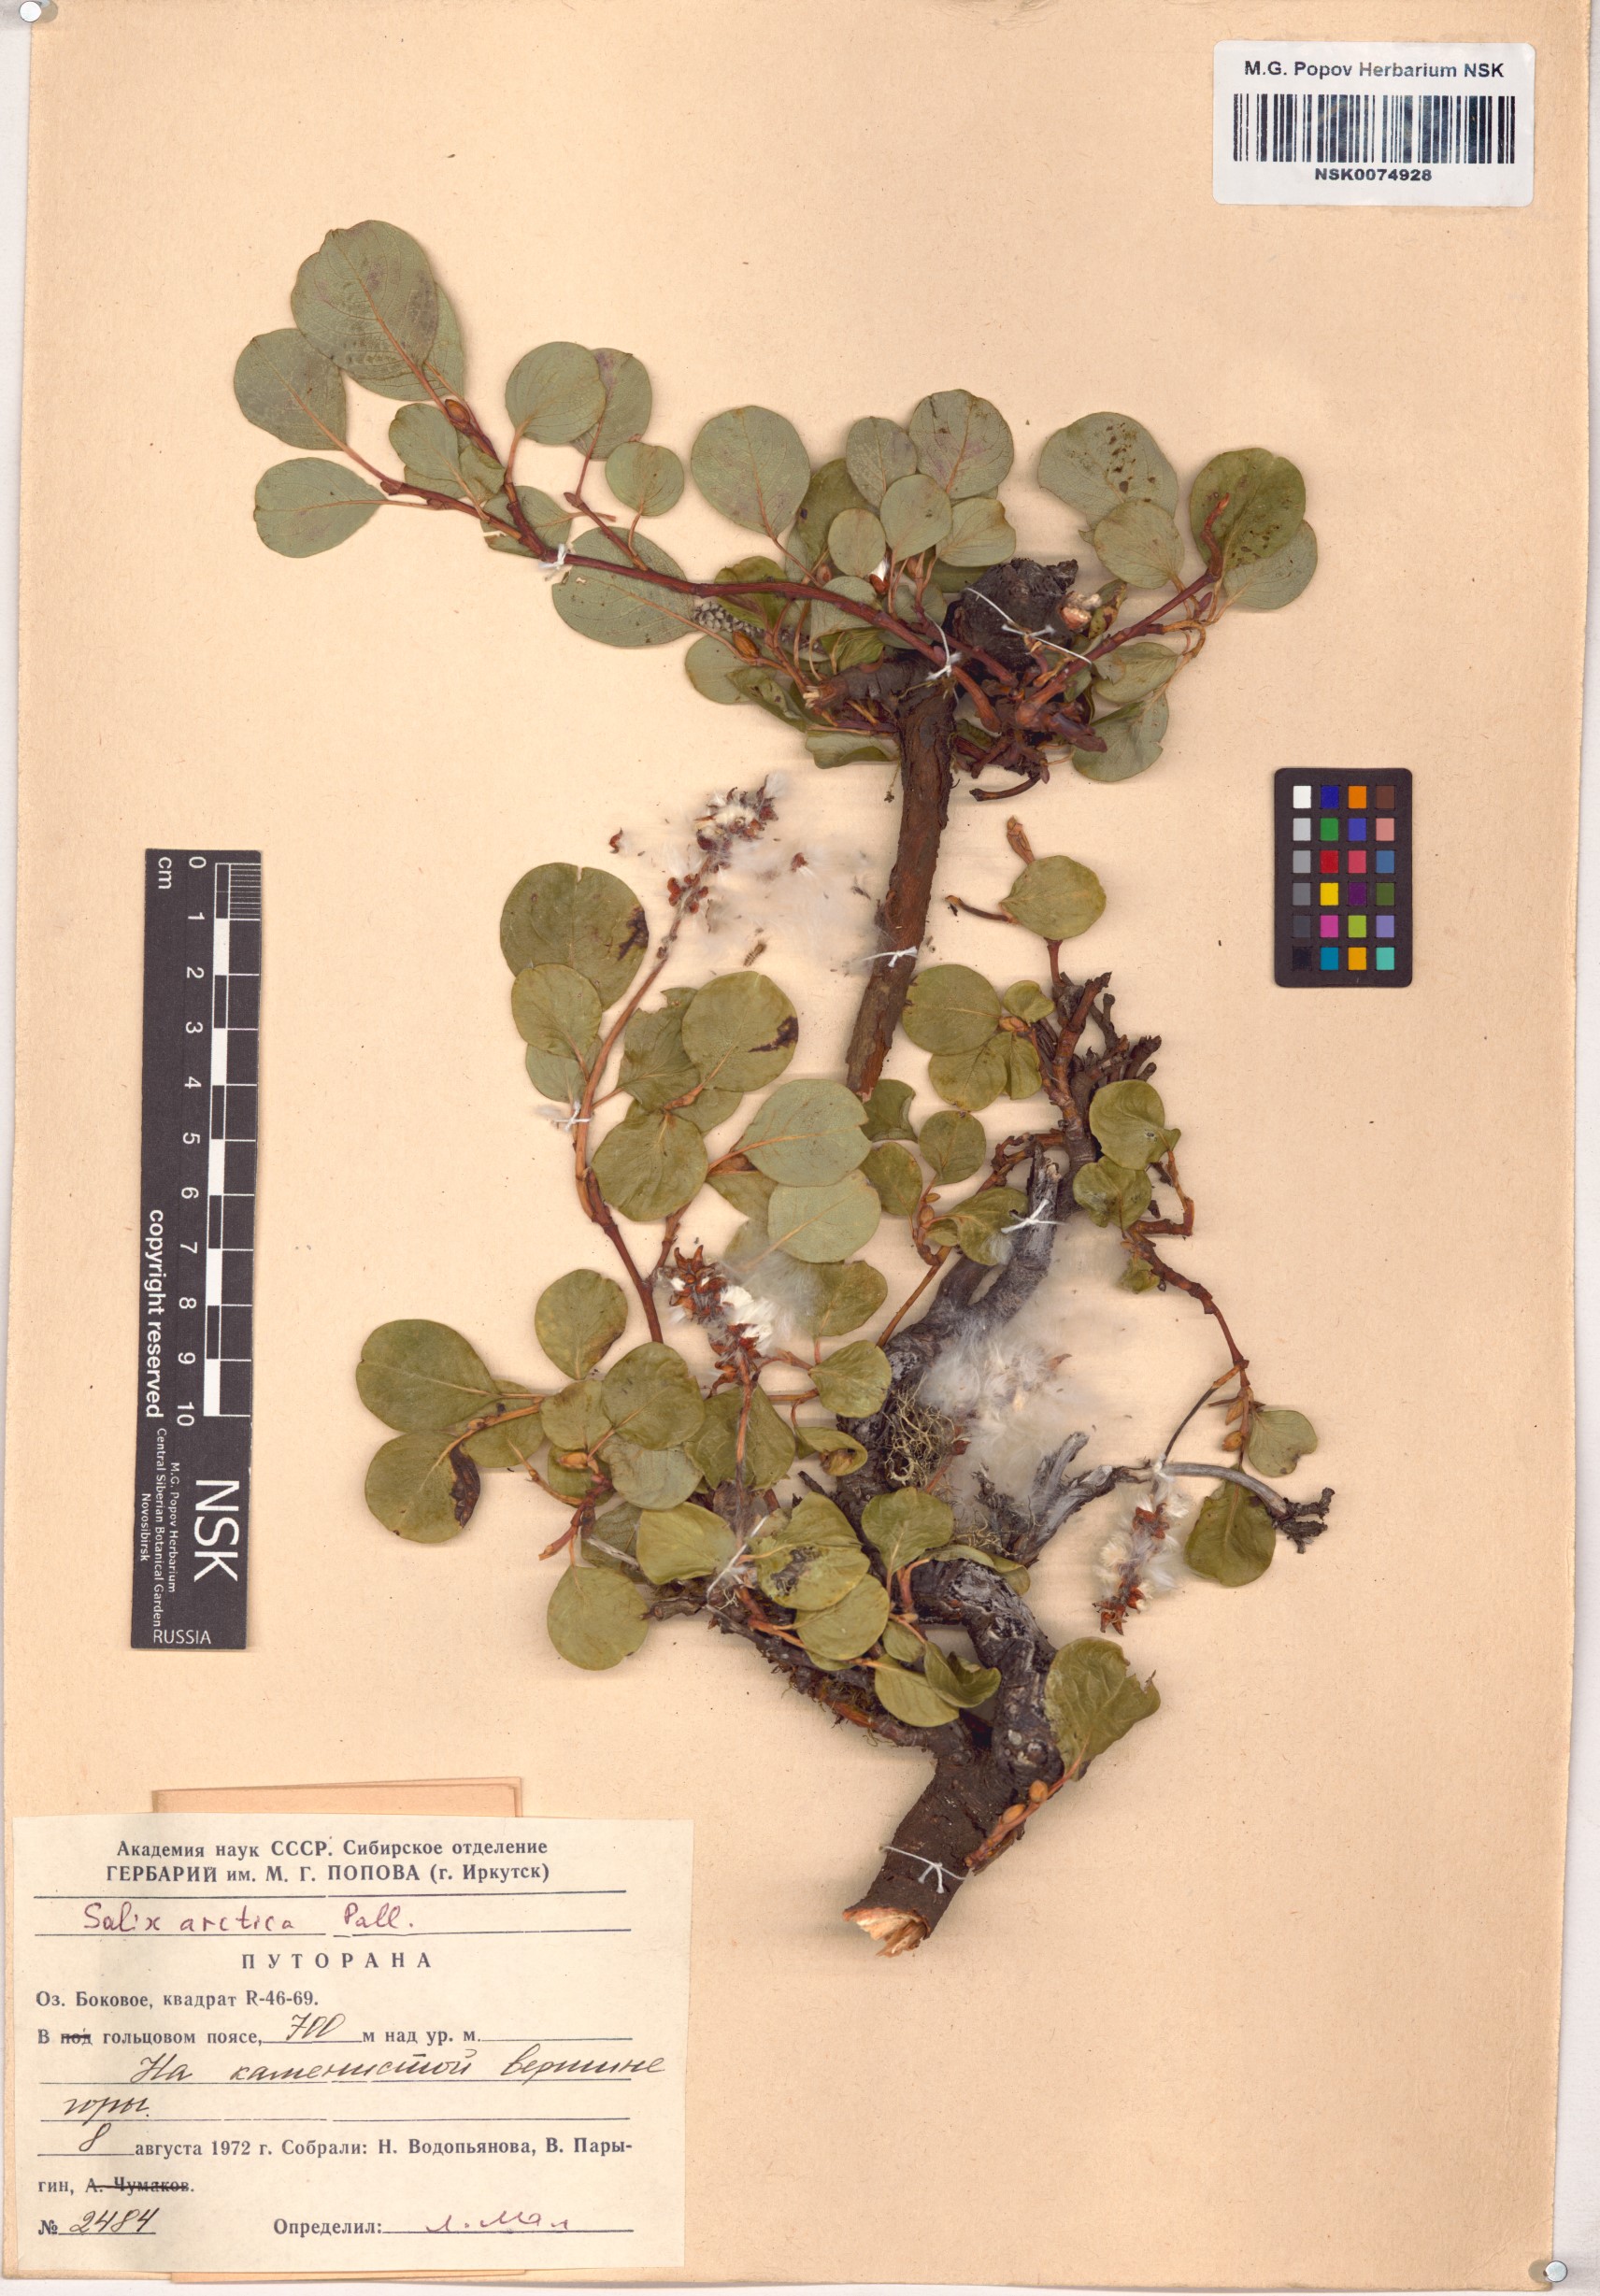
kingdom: Plantae
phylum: Tracheophyta
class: Magnoliopsida
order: Malpighiales
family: Salicaceae
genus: Salix
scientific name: Salix arctica
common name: Arctic willow
